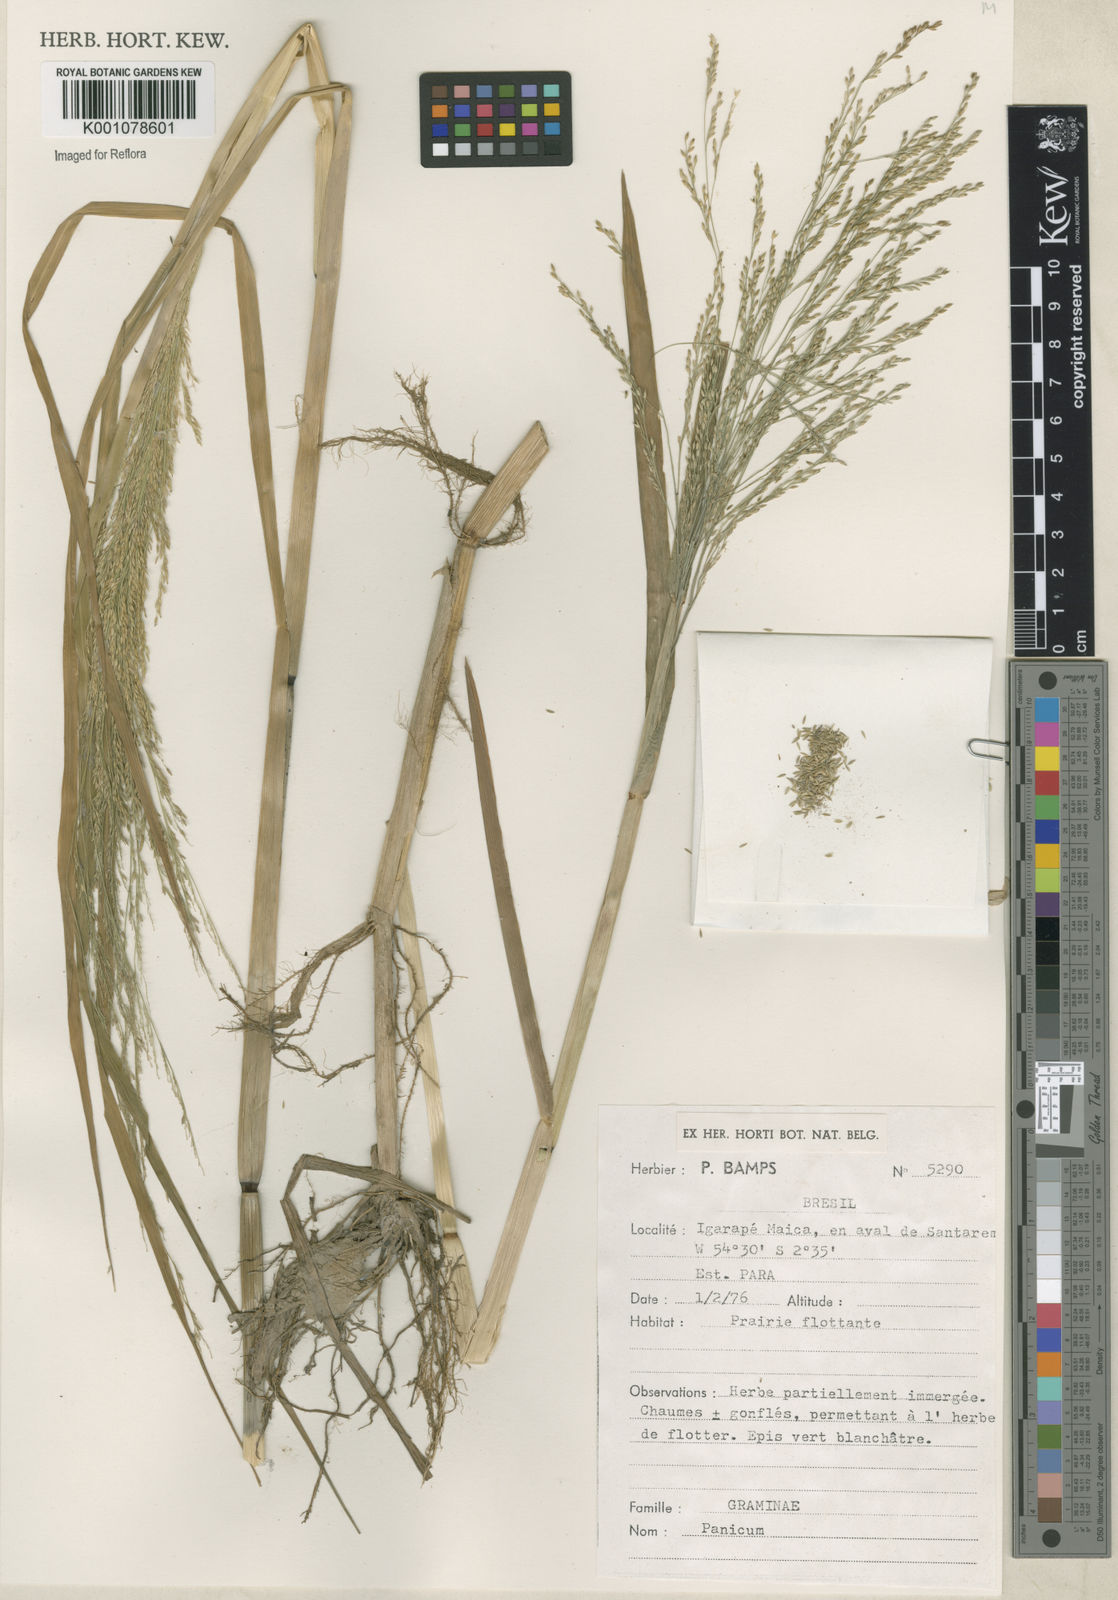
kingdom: Plantae
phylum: Tracheophyta
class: Liliopsida
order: Poales
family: Poaceae
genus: Panicum
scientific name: Panicum dichotomiflorum
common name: Autumn millet
